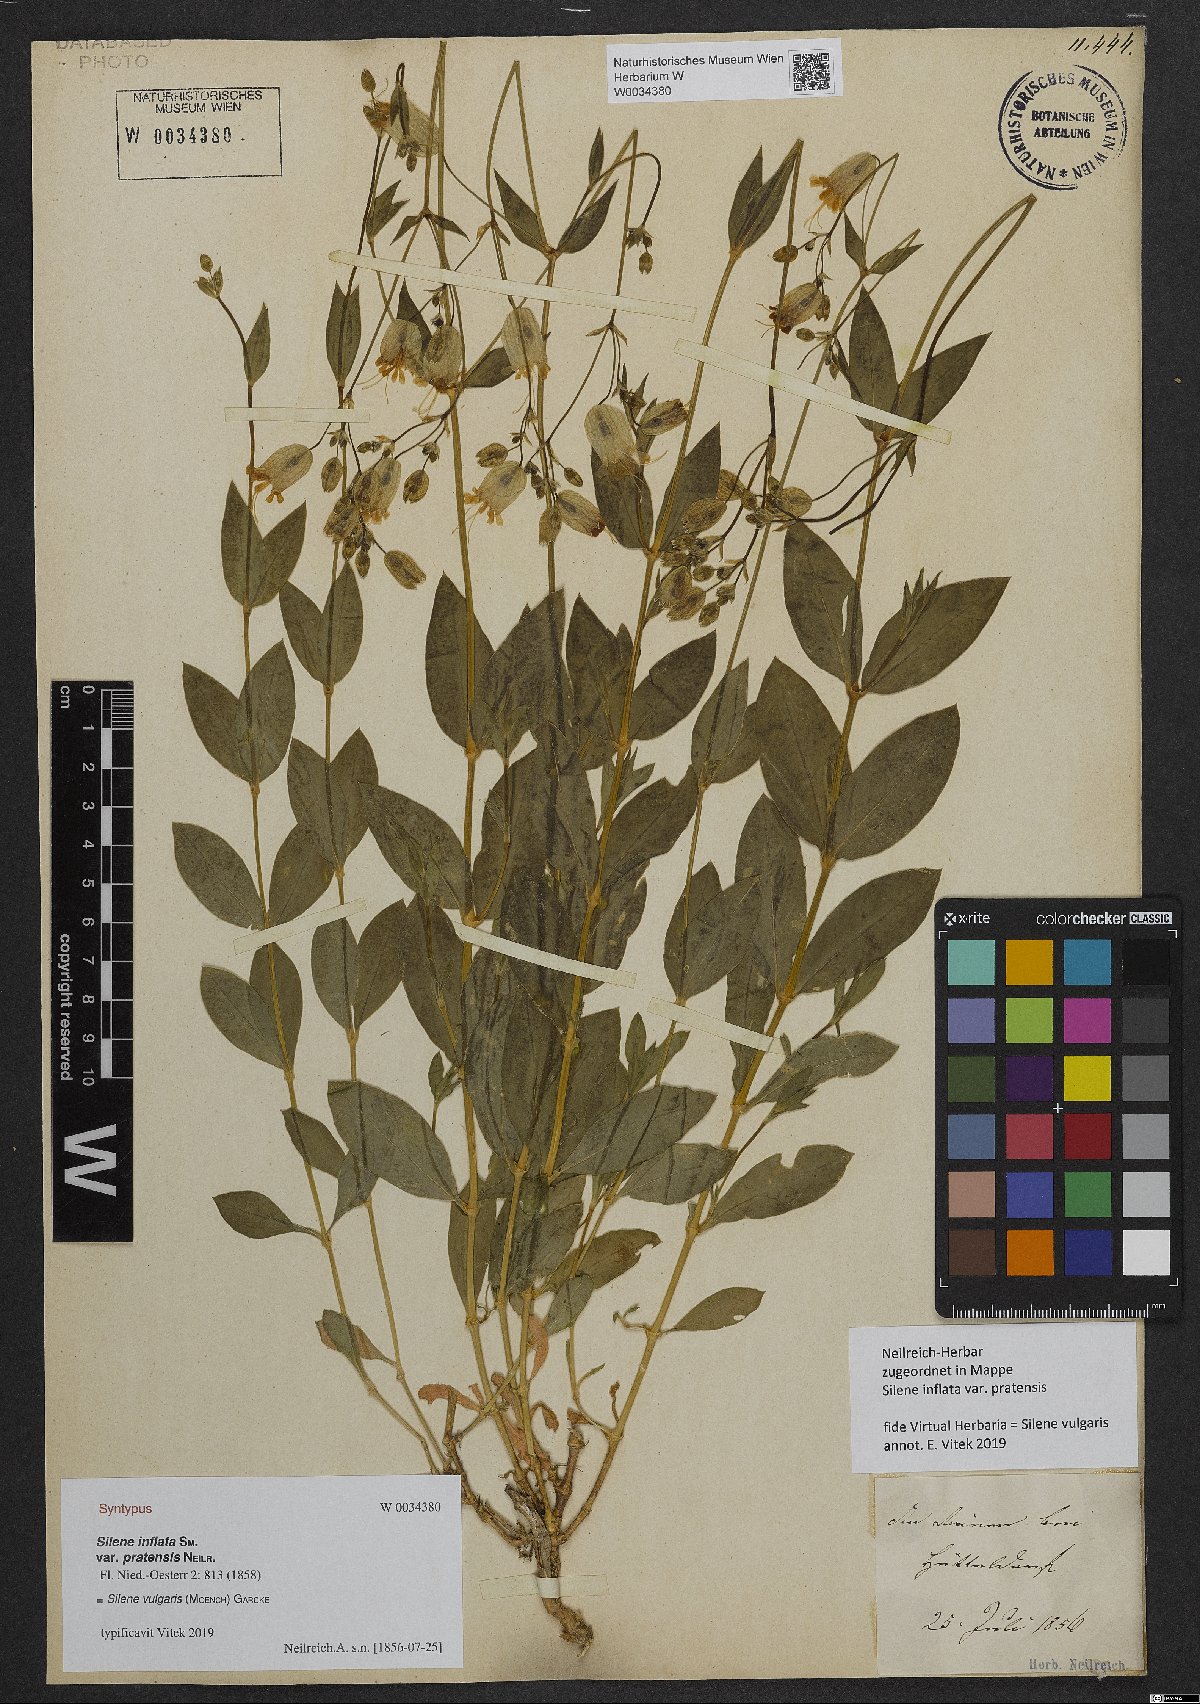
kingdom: Plantae
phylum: Tracheophyta
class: Magnoliopsida
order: Caryophyllales
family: Caryophyllaceae
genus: Silene
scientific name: Silene vulgaris
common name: Bladder campion
